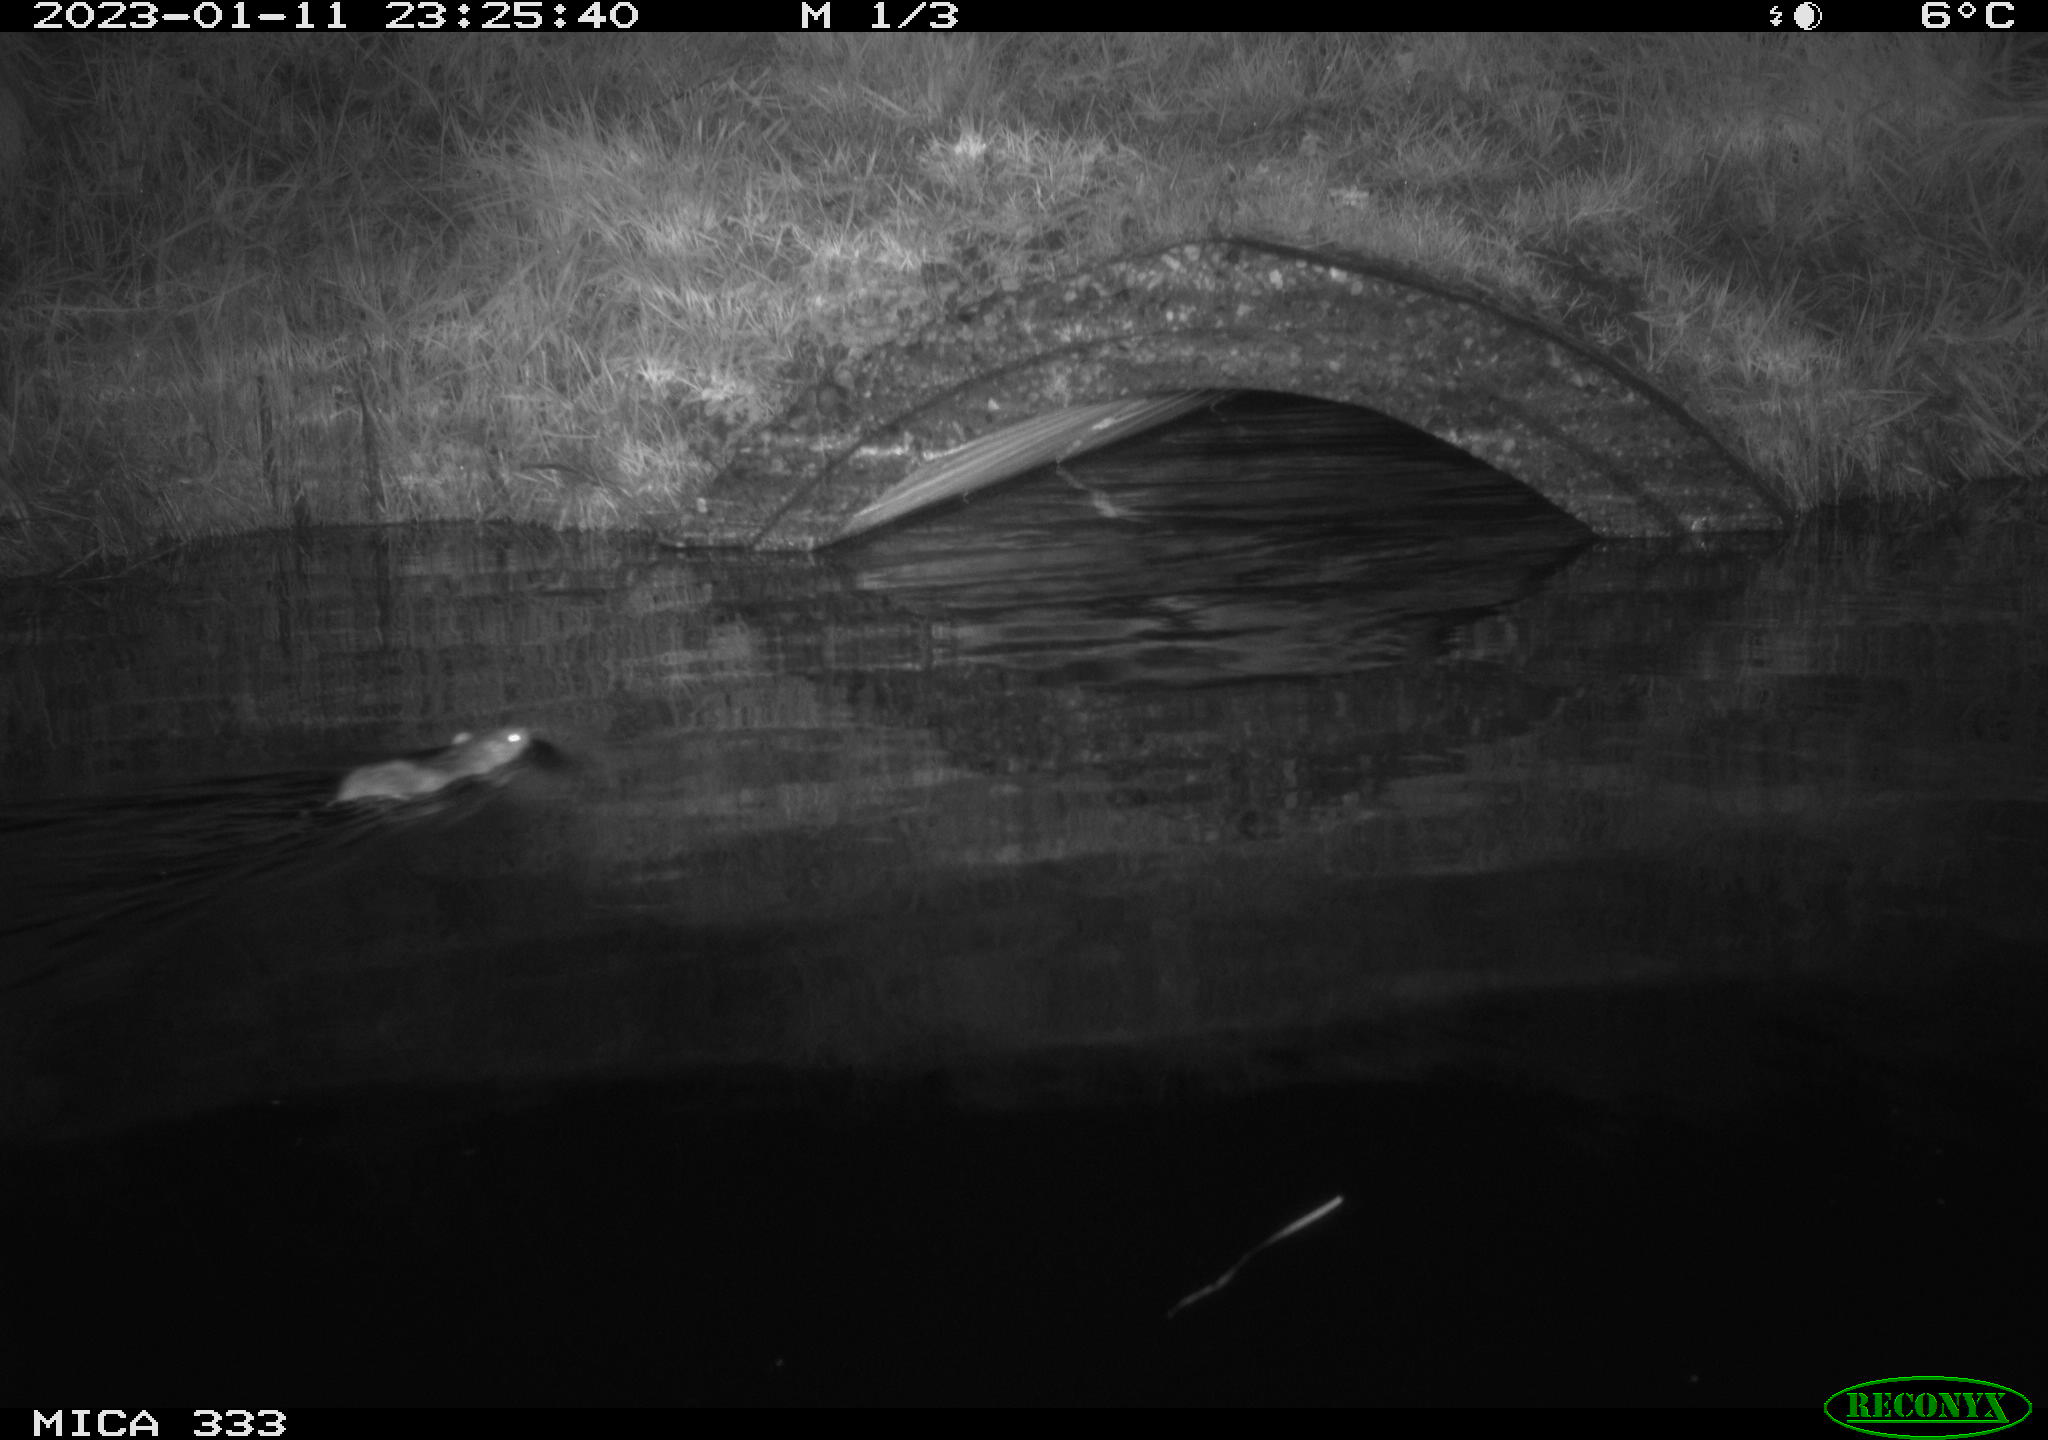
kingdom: Animalia
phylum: Chordata
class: Mammalia
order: Rodentia
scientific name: Rodentia
